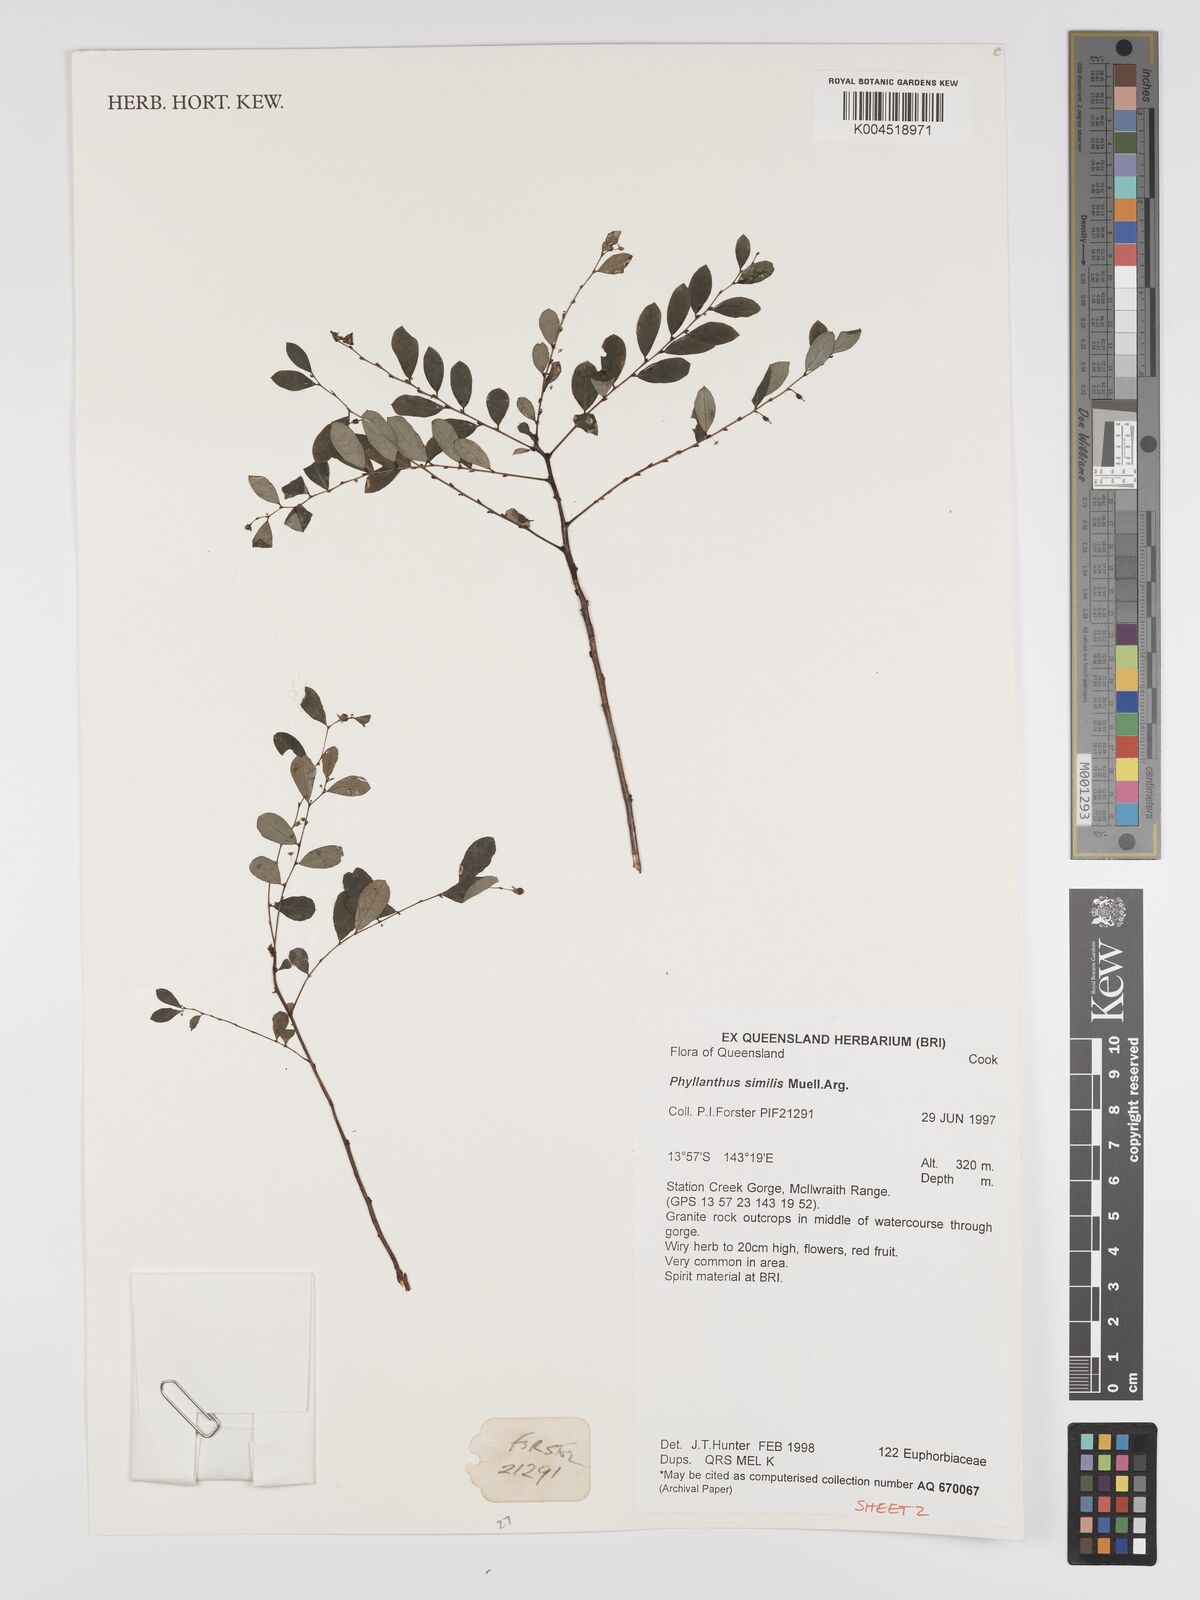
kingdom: Plantae
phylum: Tracheophyta
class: Magnoliopsida
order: Malpighiales
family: Phyllanthaceae
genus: Phyllanthus
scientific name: Phyllanthus similis
